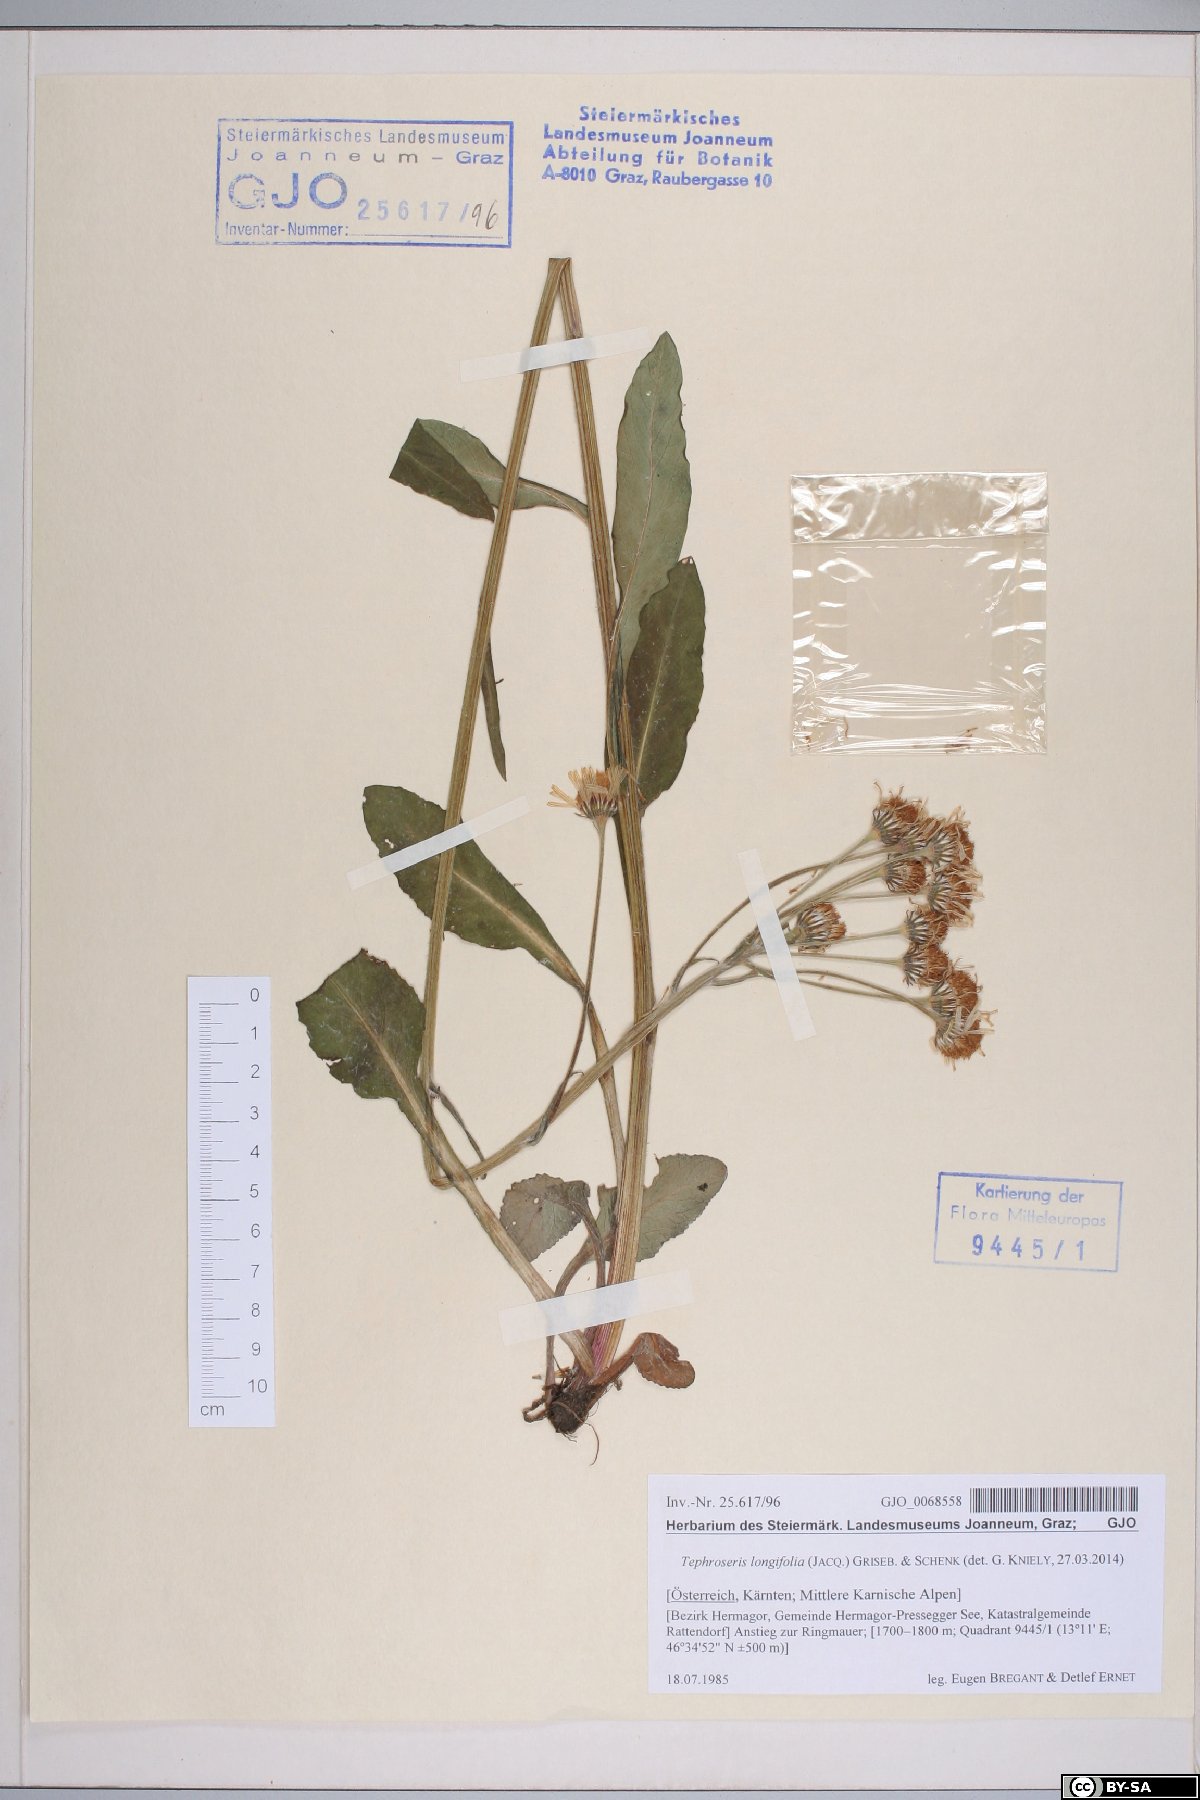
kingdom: Plantae
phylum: Tracheophyta
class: Magnoliopsida
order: Asterales
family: Asteraceae
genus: Tephroseris
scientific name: Tephroseris longifolia
